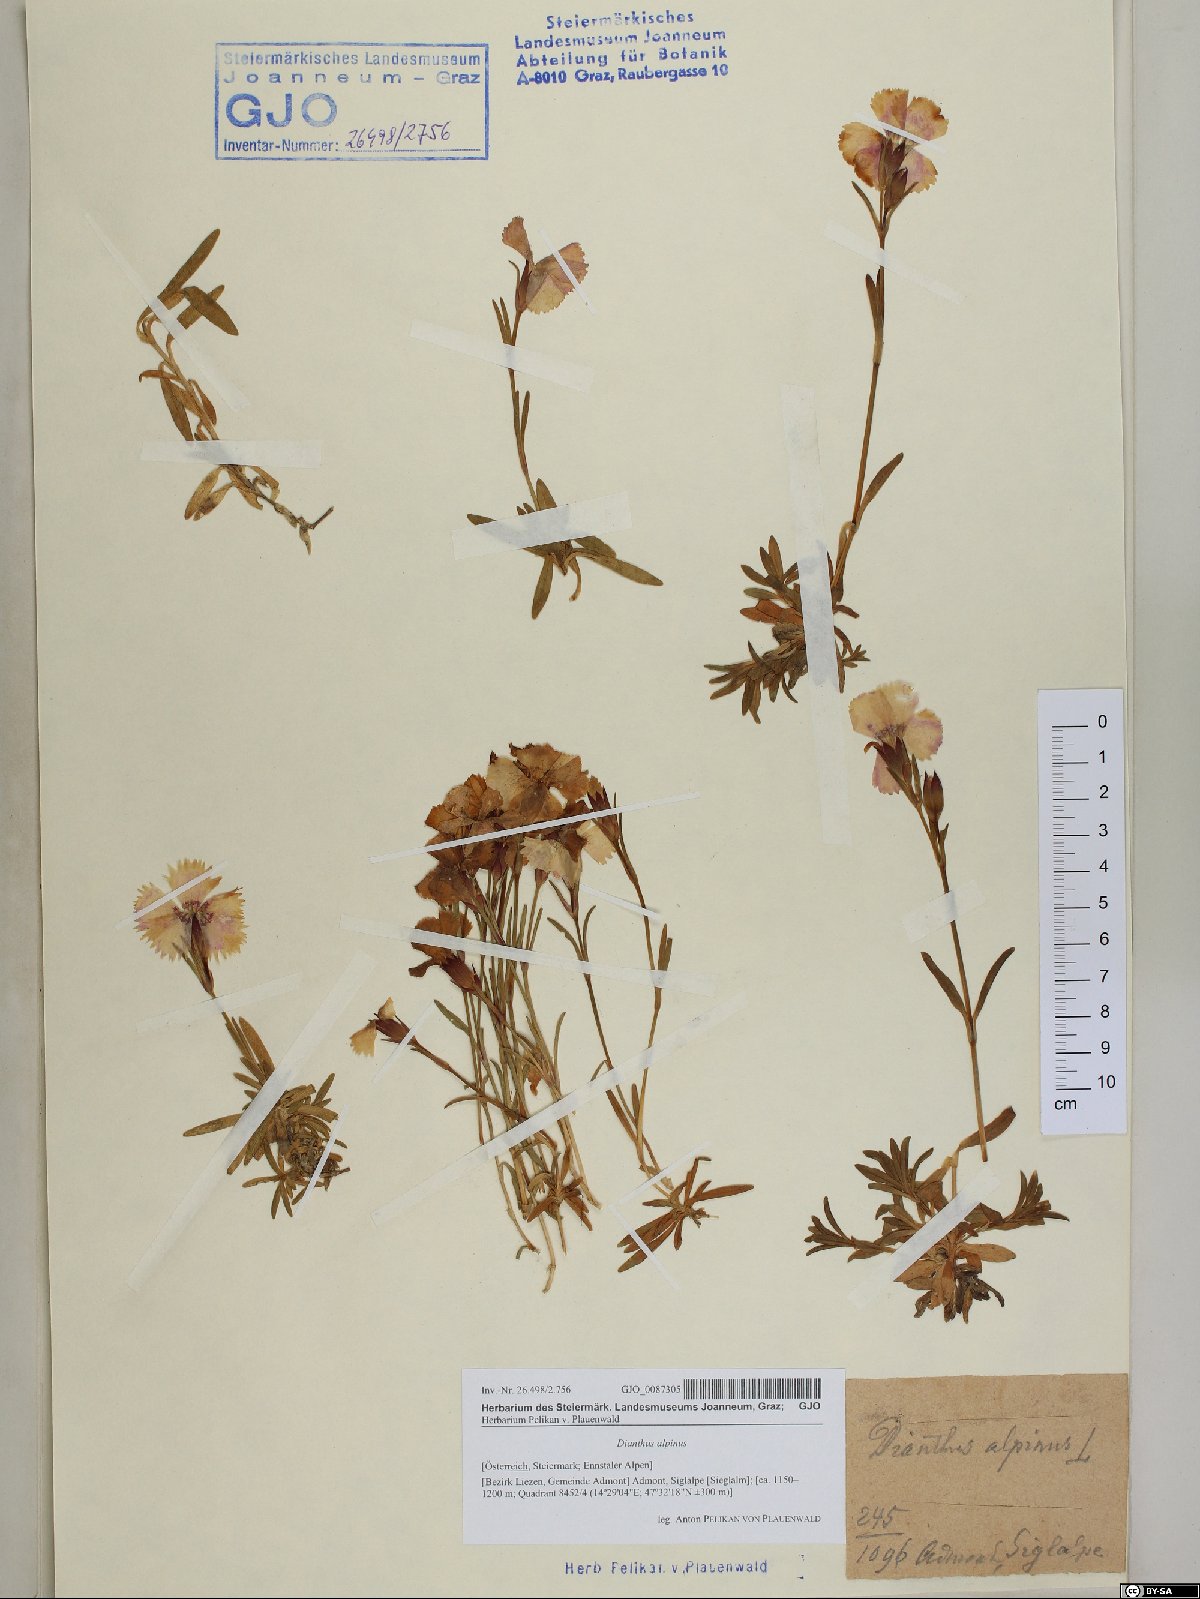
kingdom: Plantae
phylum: Tracheophyta
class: Magnoliopsida
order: Caryophyllales
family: Caryophyllaceae
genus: Dianthus
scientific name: Dianthus alpinus
